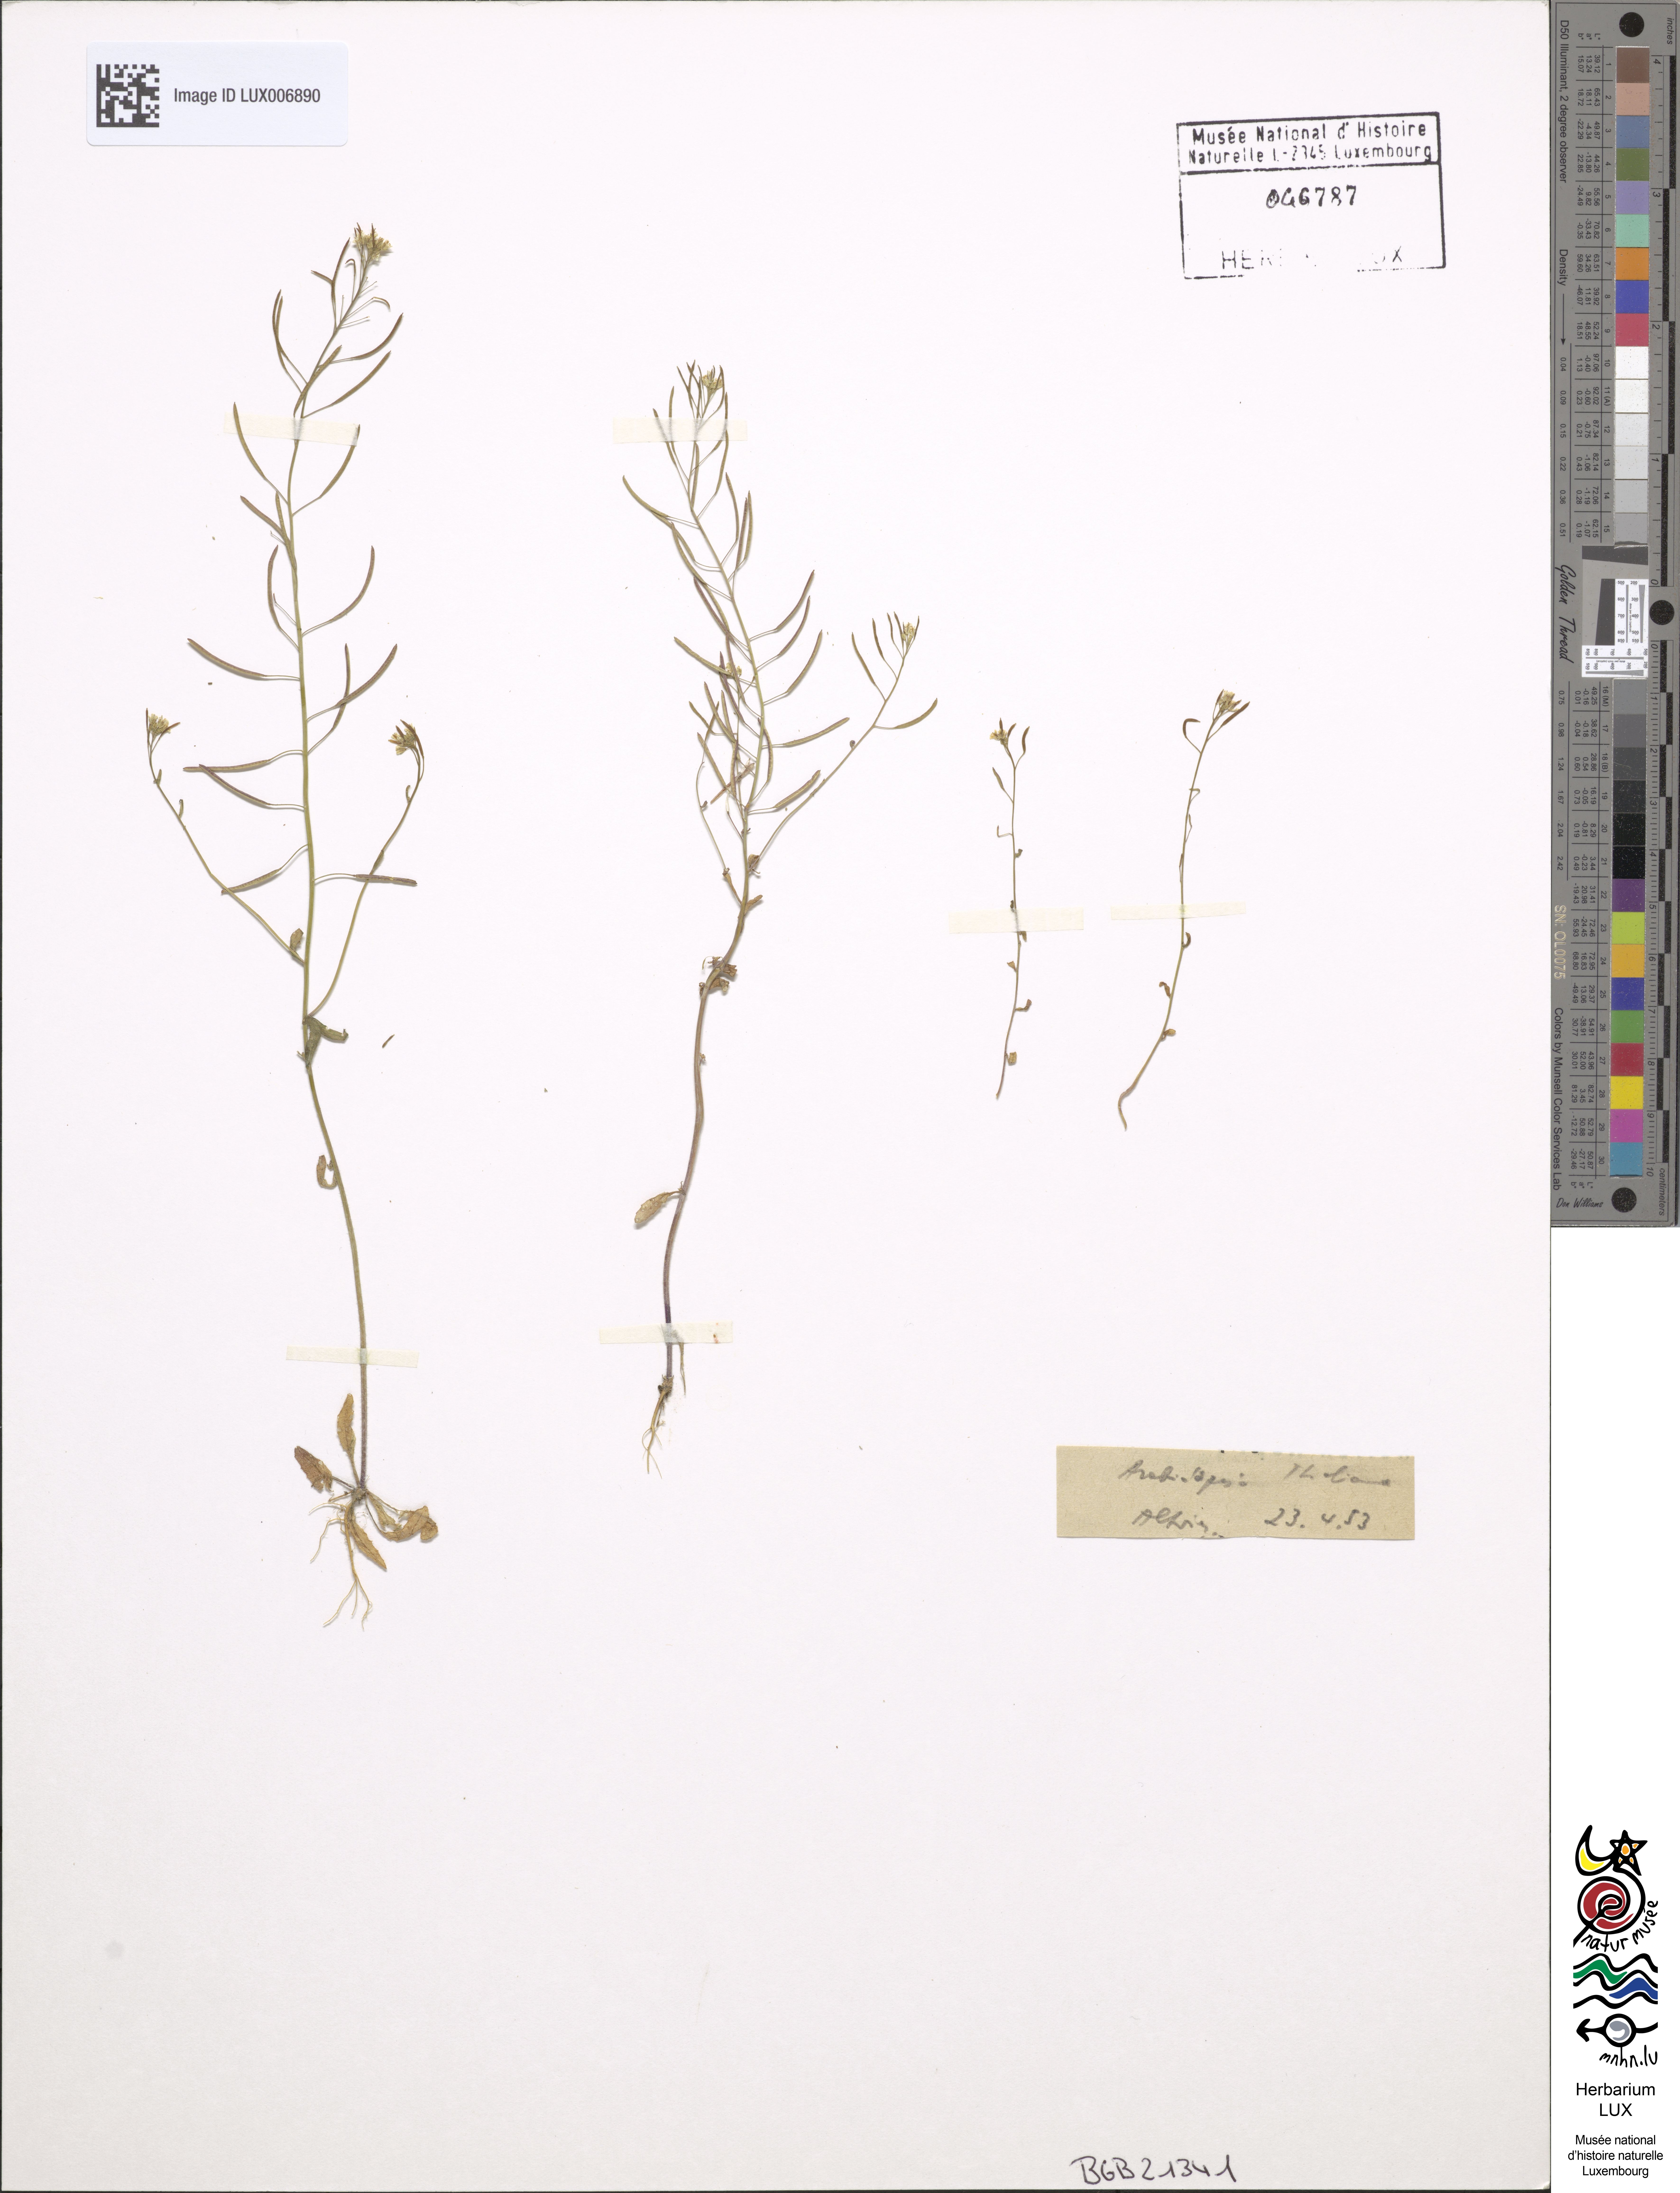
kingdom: Plantae
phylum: Tracheophyta
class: Magnoliopsida
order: Brassicales
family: Brassicaceae
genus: Arabidopsis
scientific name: Arabidopsis thaliana
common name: Thale cress
